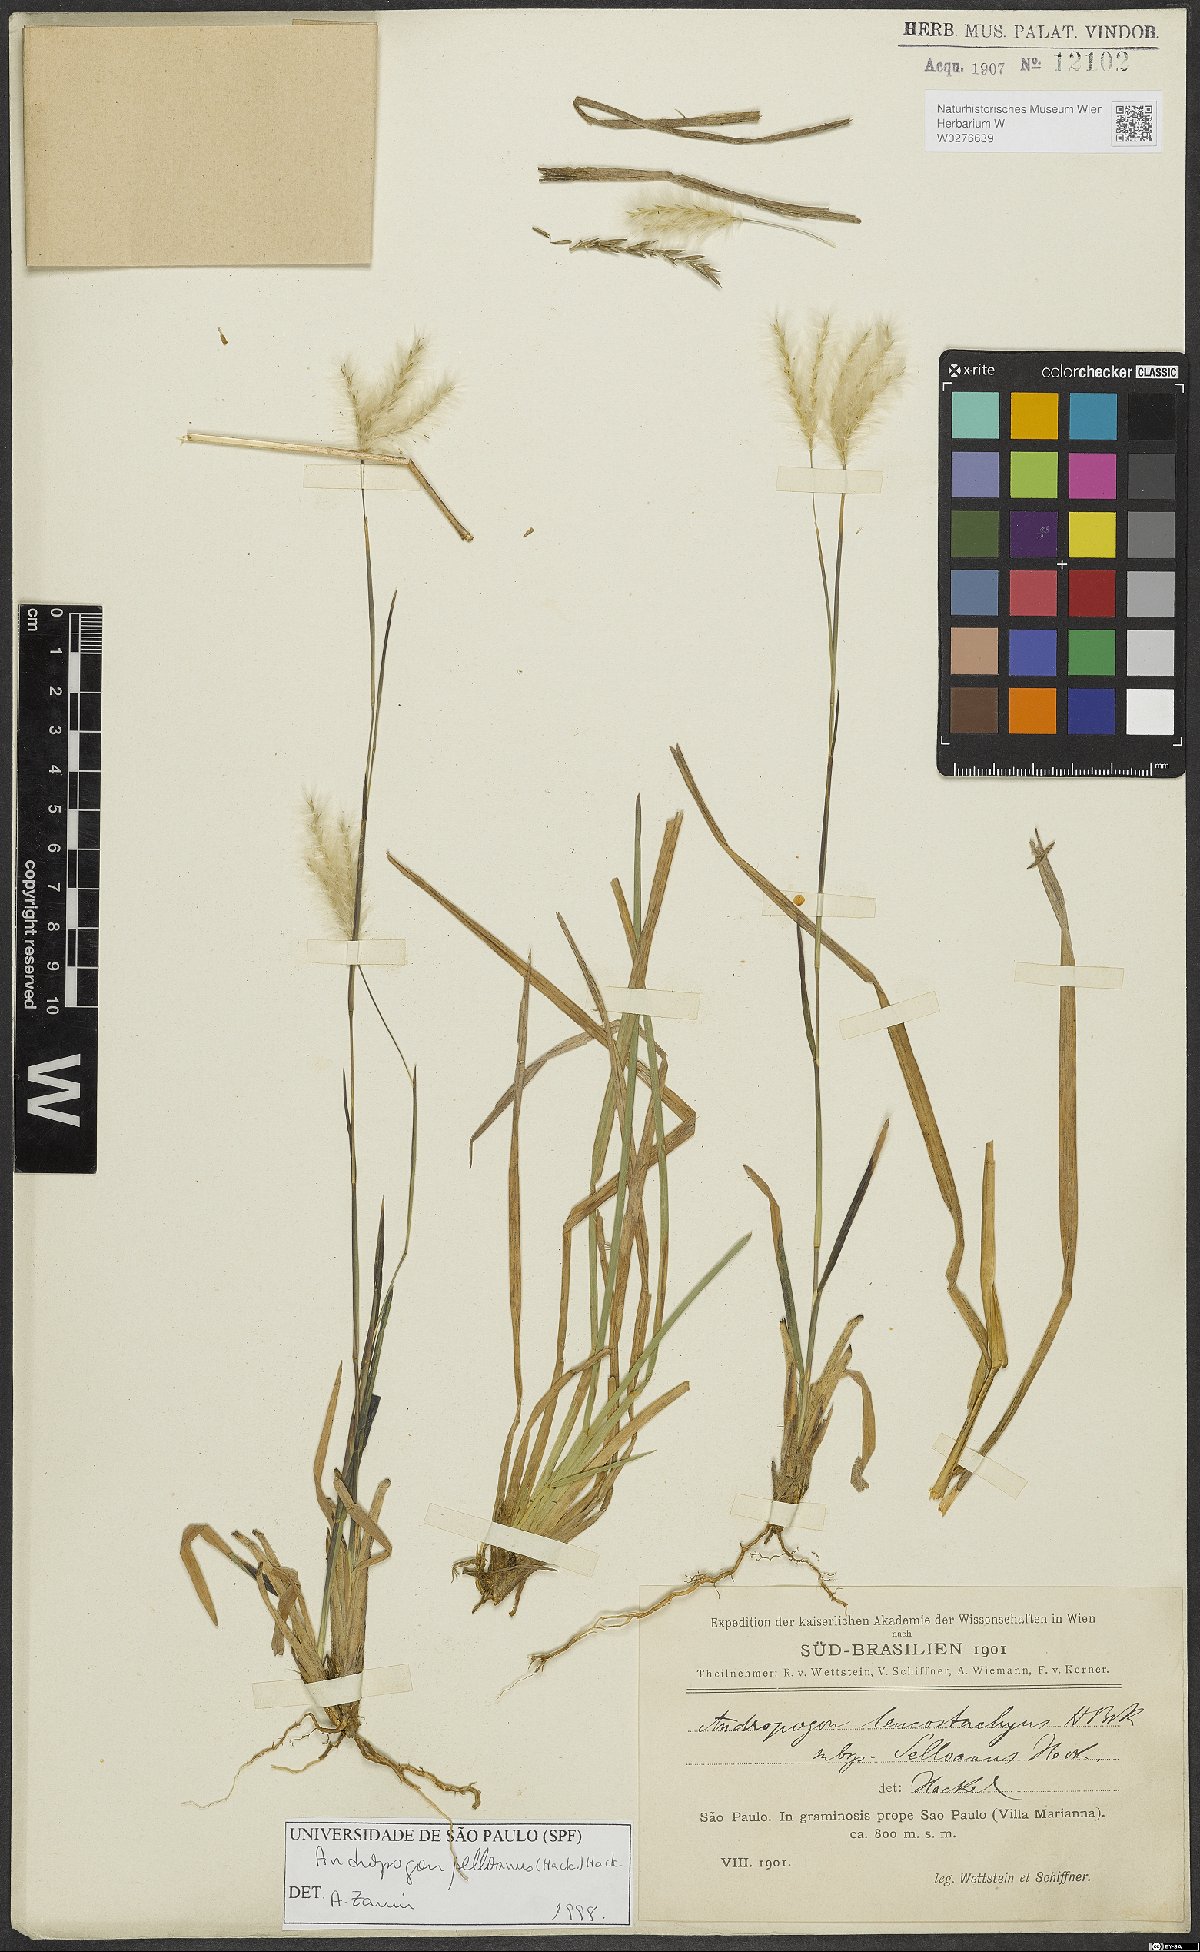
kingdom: Plantae
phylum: Tracheophyta
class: Liliopsida
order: Poales
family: Poaceae
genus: Andropogon
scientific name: Andropogon selloanus
